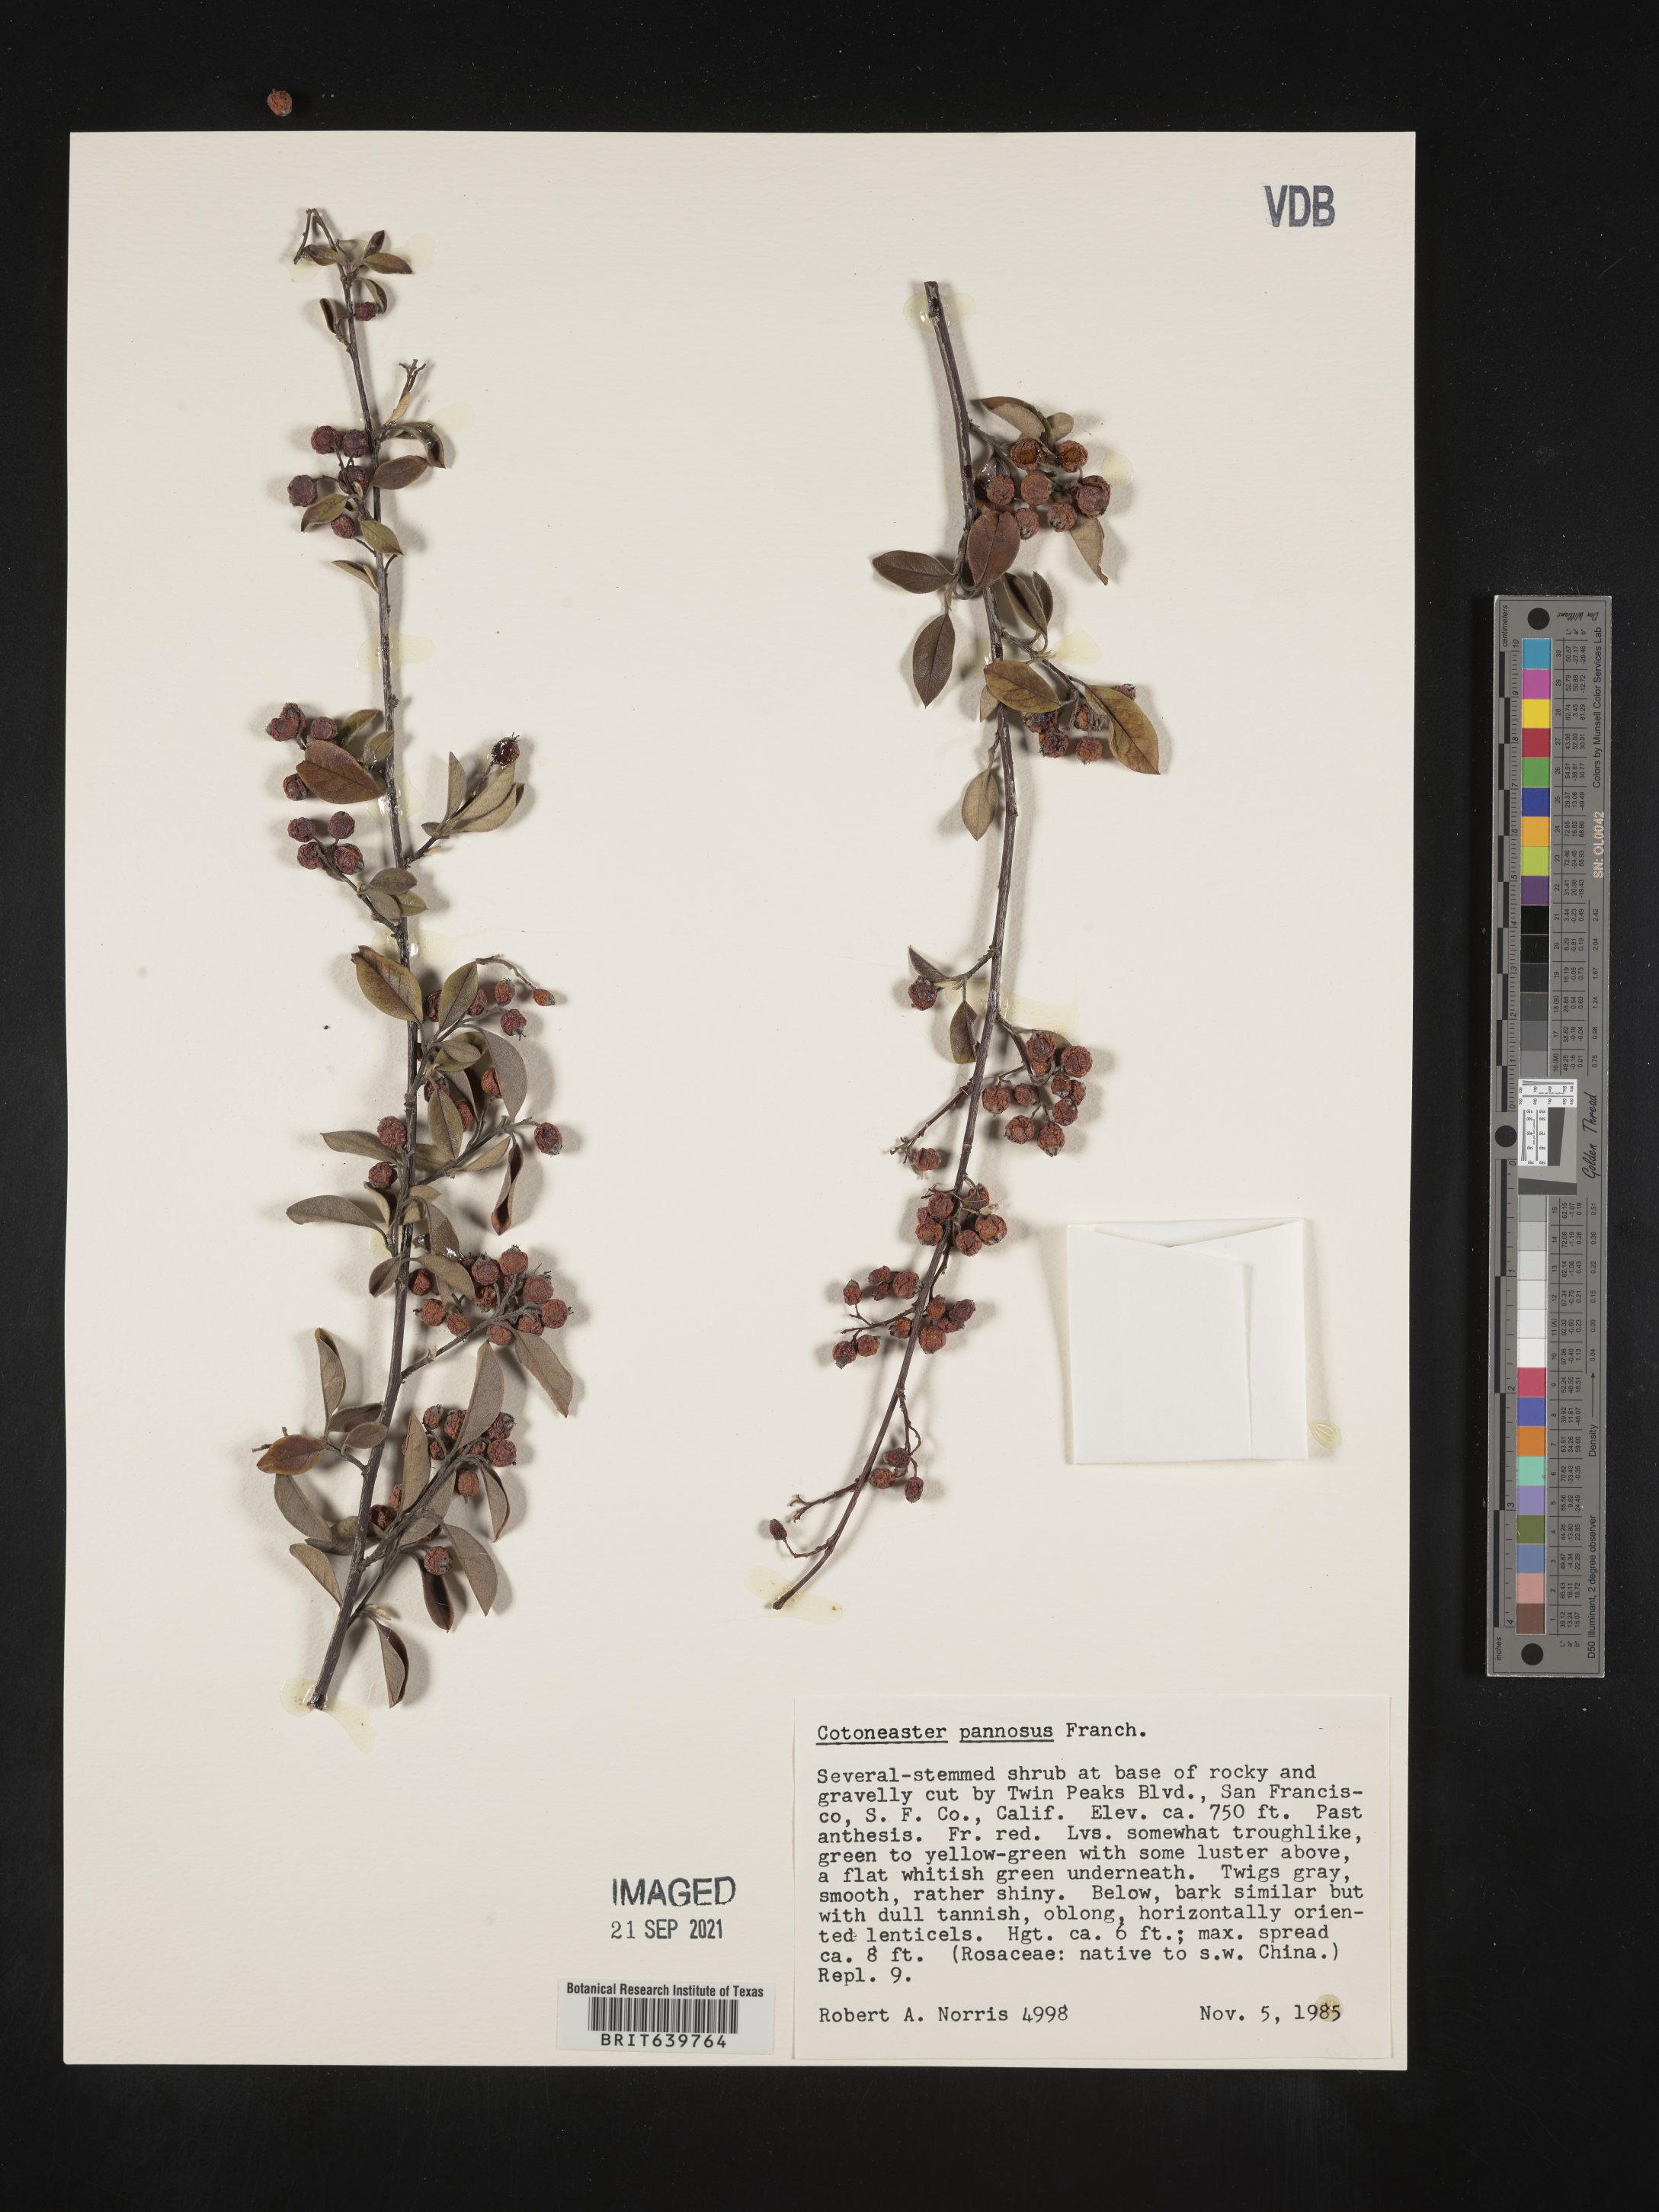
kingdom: Plantae
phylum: Tracheophyta
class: Magnoliopsida
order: Rosales
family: Rosaceae
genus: Cotoneaster
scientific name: Cotoneaster
